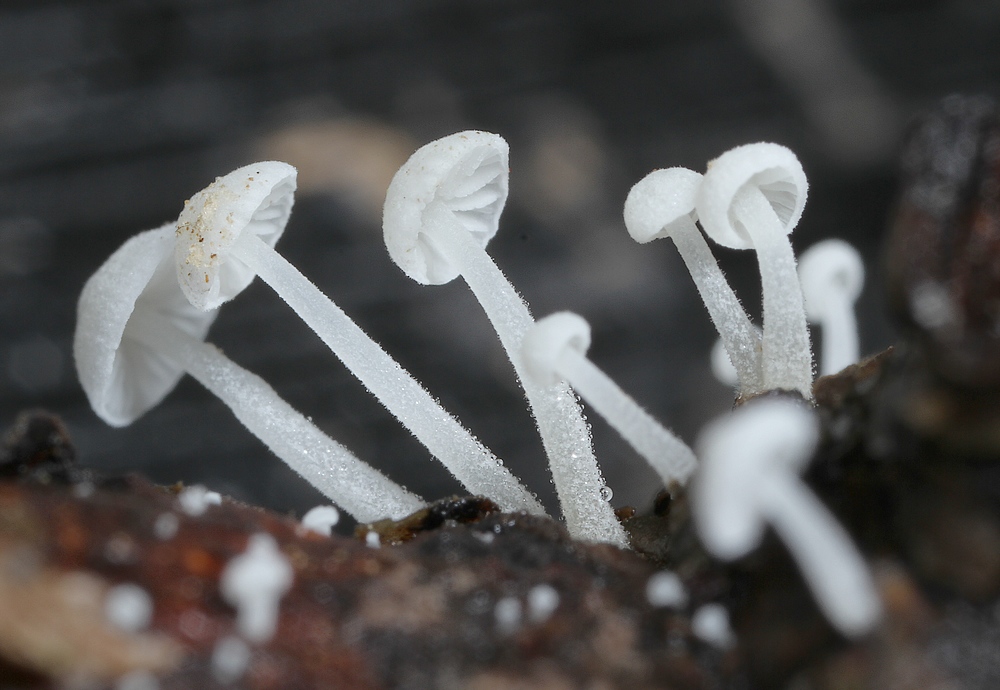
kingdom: Fungi
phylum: Basidiomycota
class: Agaricomycetes
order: Agaricales
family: Mycenaceae
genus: Hemimycena
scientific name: Hemimycena tortuosa
